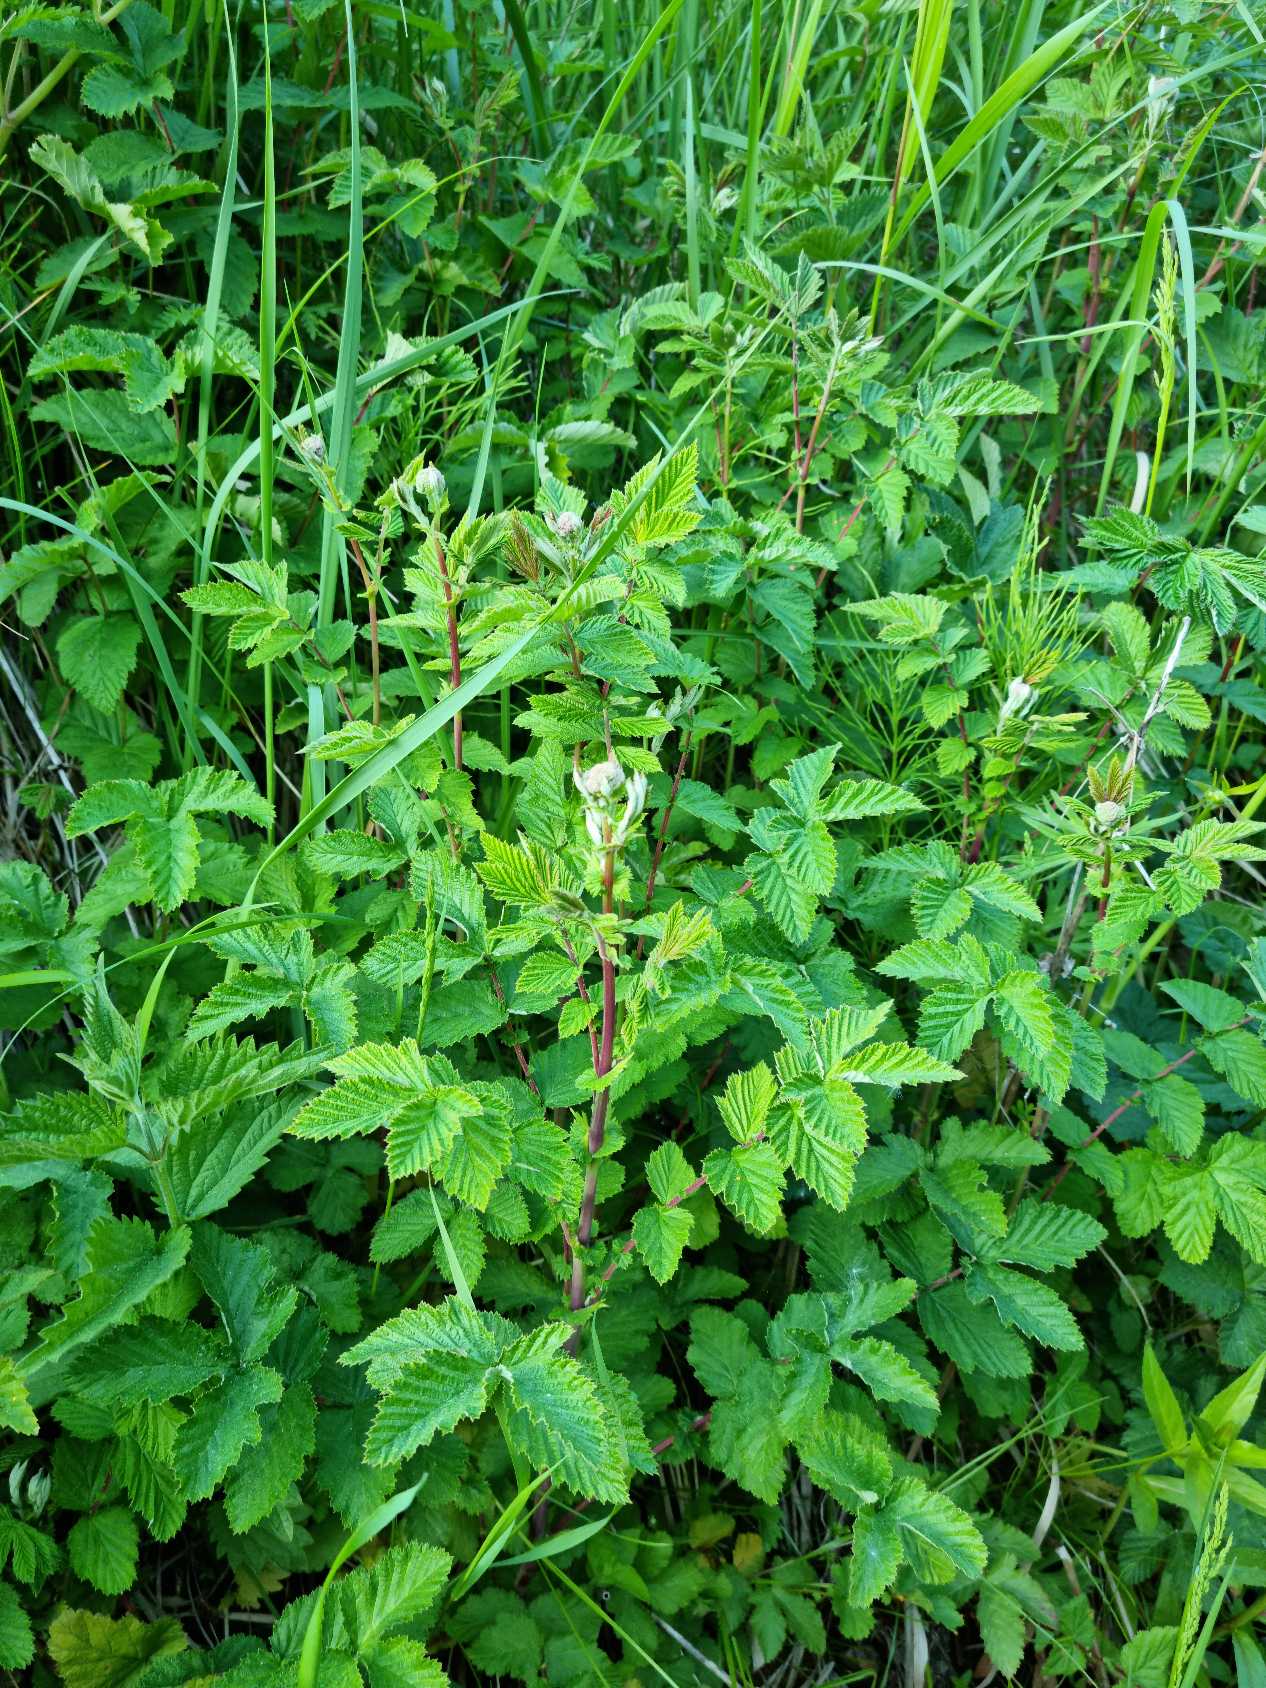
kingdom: Plantae
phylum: Tracheophyta
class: Magnoliopsida
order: Rosales
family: Rosaceae
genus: Filipendula
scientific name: Filipendula ulmaria
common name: Almindelig mjødurt
